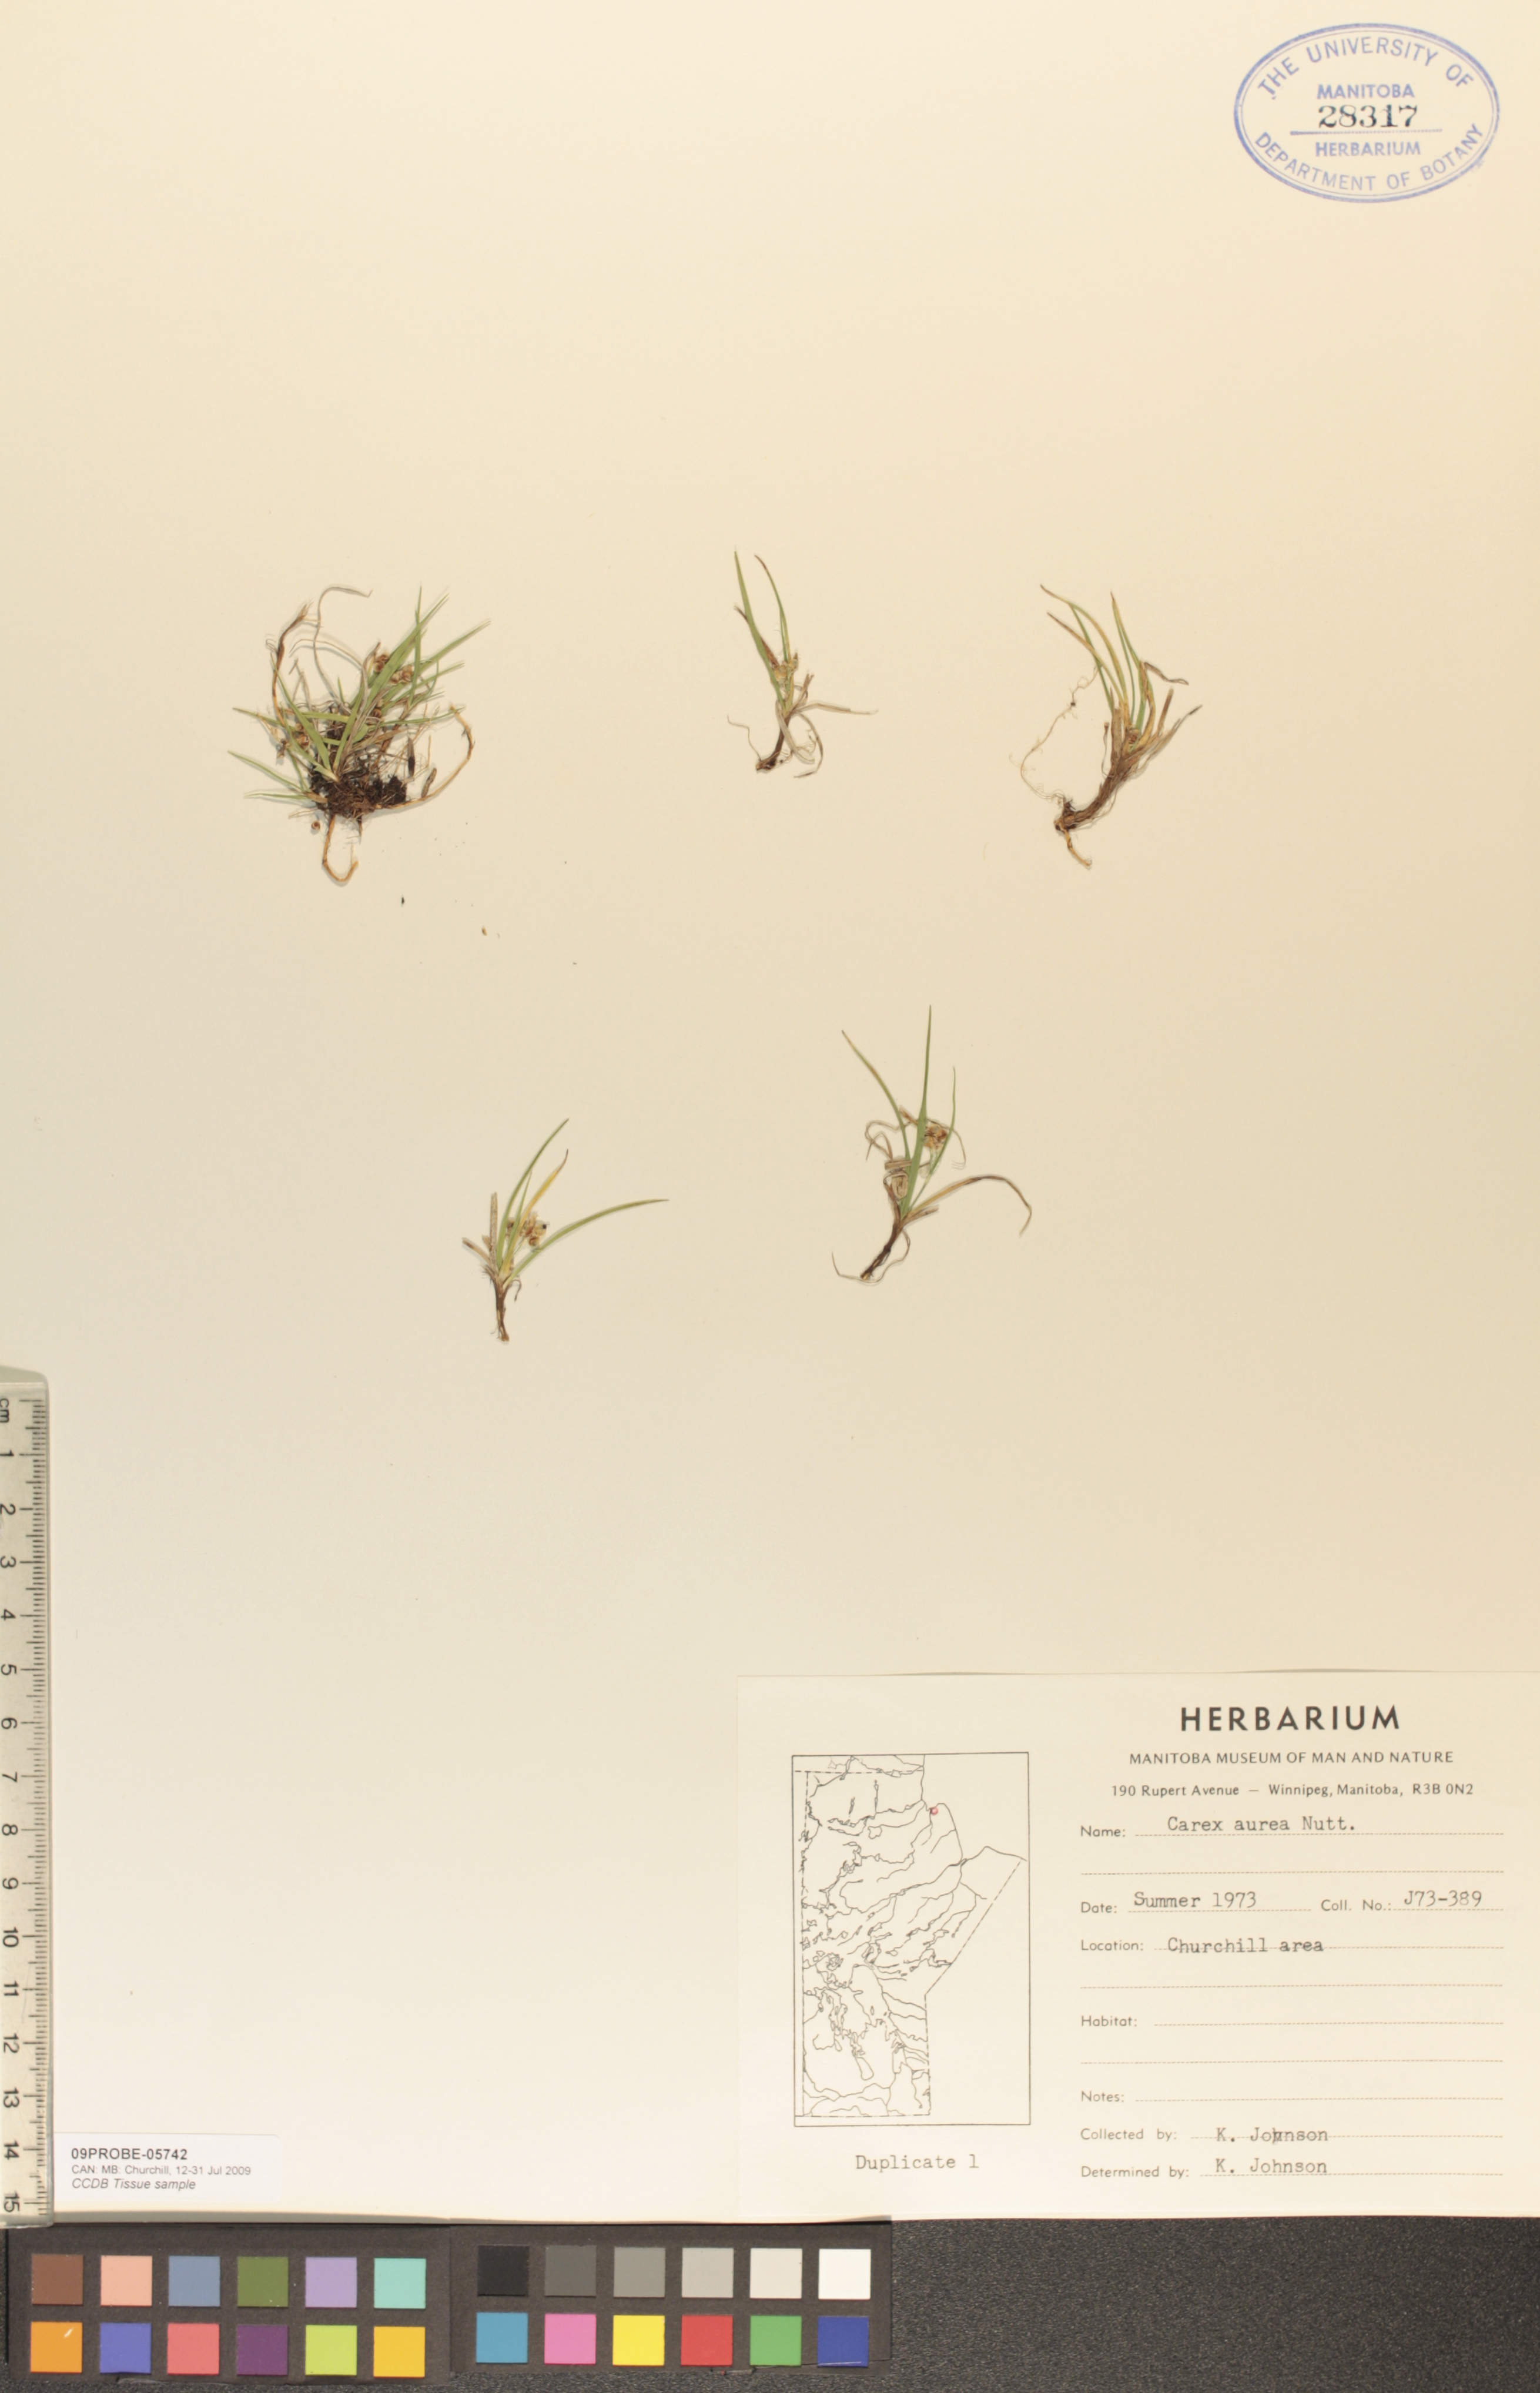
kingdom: Plantae
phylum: Tracheophyta
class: Liliopsida
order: Poales
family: Cyperaceae
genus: Carex
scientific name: Carex aurea
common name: Golden sedge
